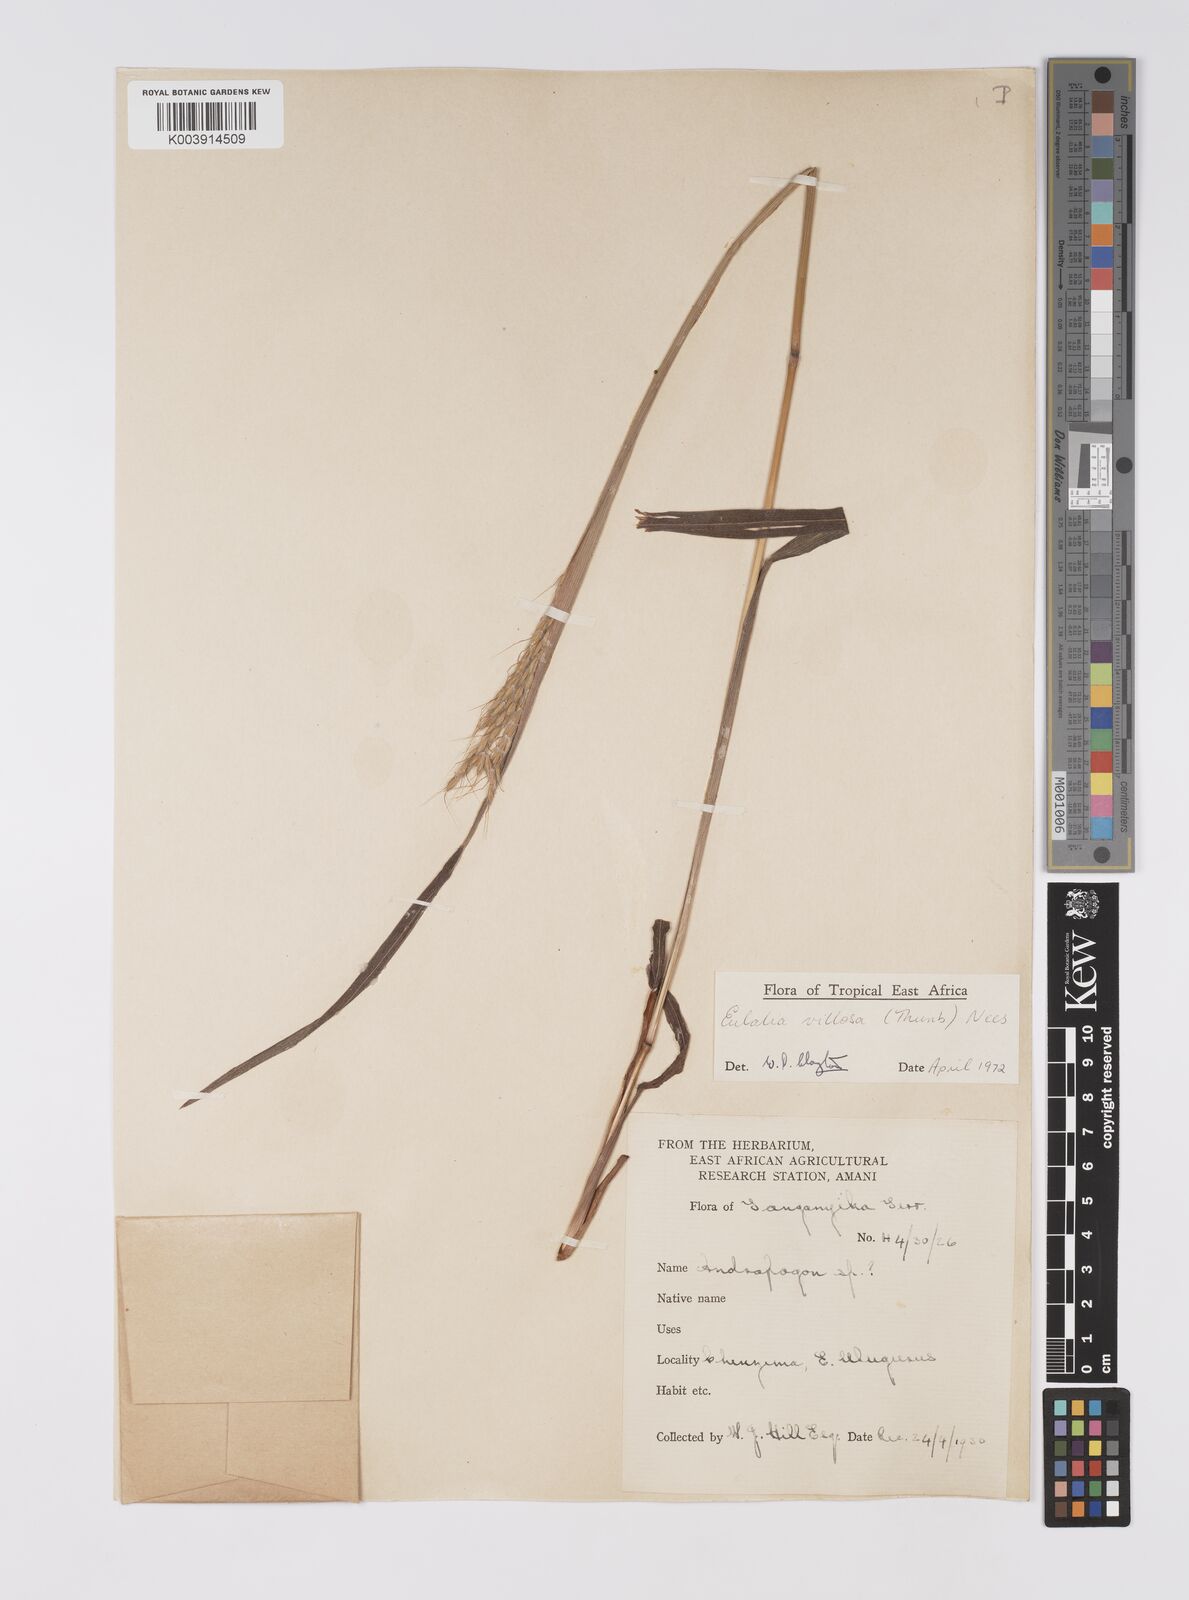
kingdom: Plantae
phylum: Tracheophyta
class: Liliopsida
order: Poales
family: Poaceae
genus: Eulalia
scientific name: Eulalia villosa
